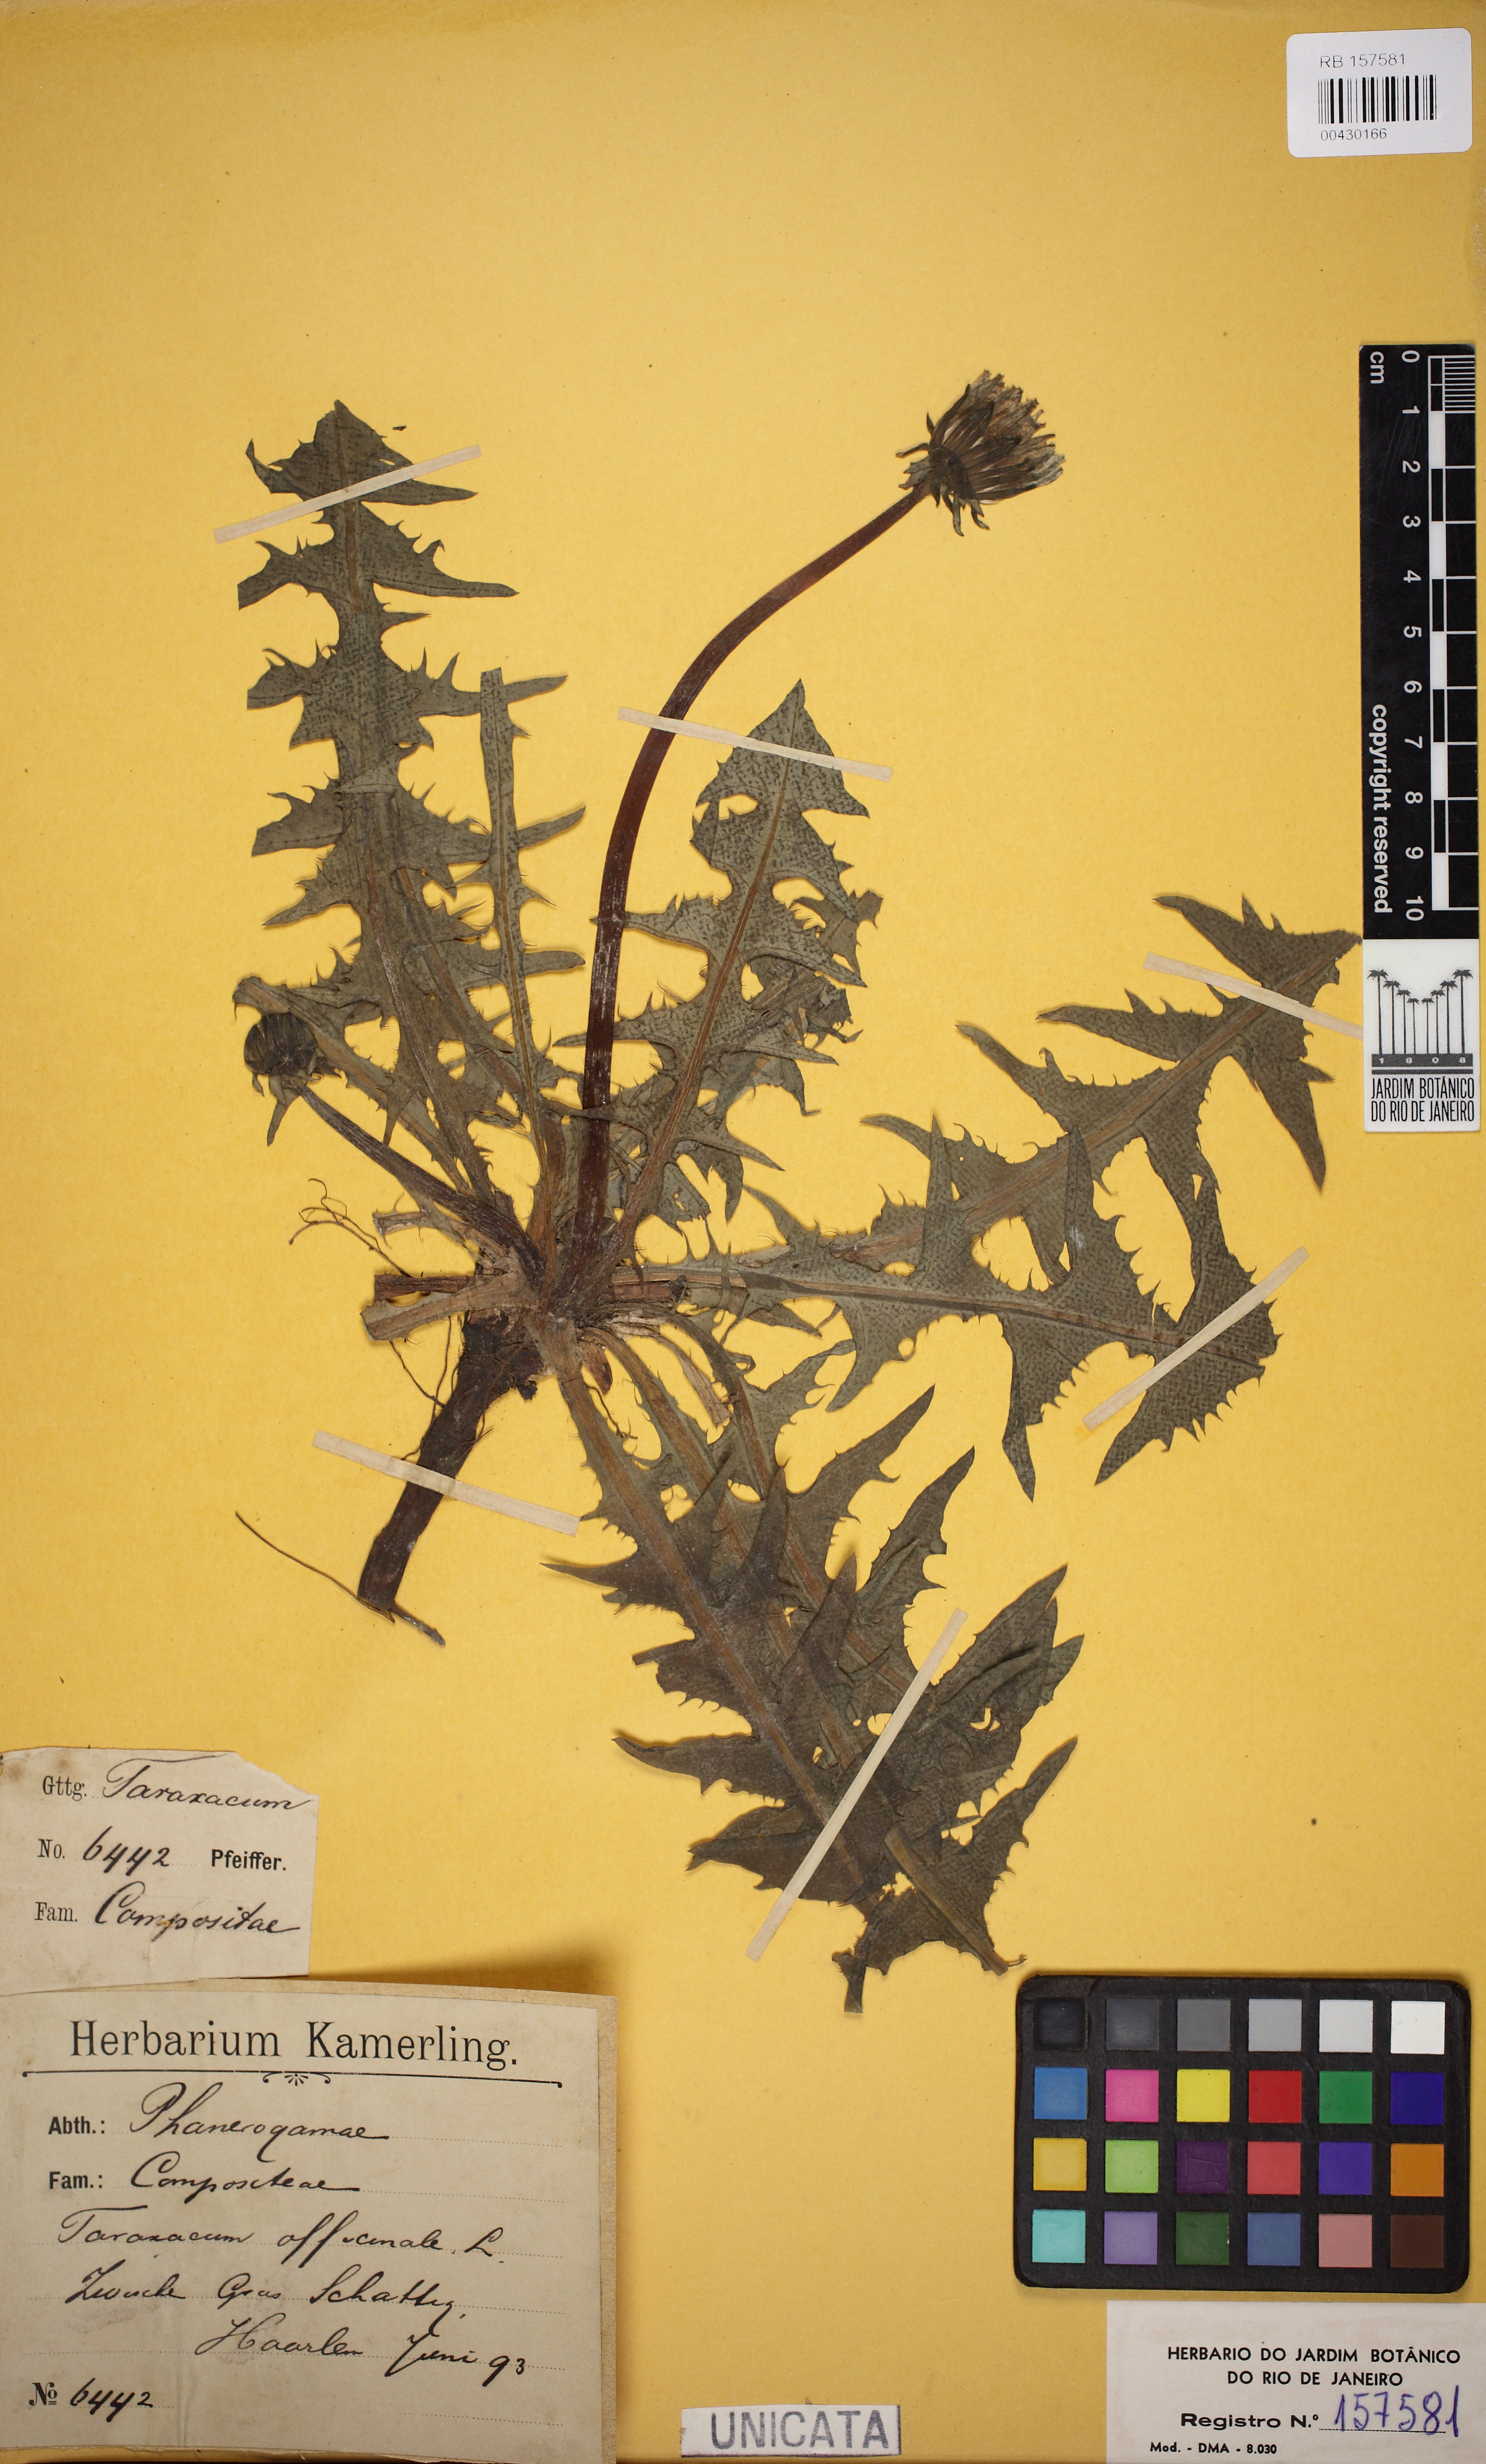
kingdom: Plantae
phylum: Tracheophyta
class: Magnoliopsida
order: Asterales
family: Asteraceae
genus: Taraxacum
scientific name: Taraxacum officinale
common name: Common dandelion
